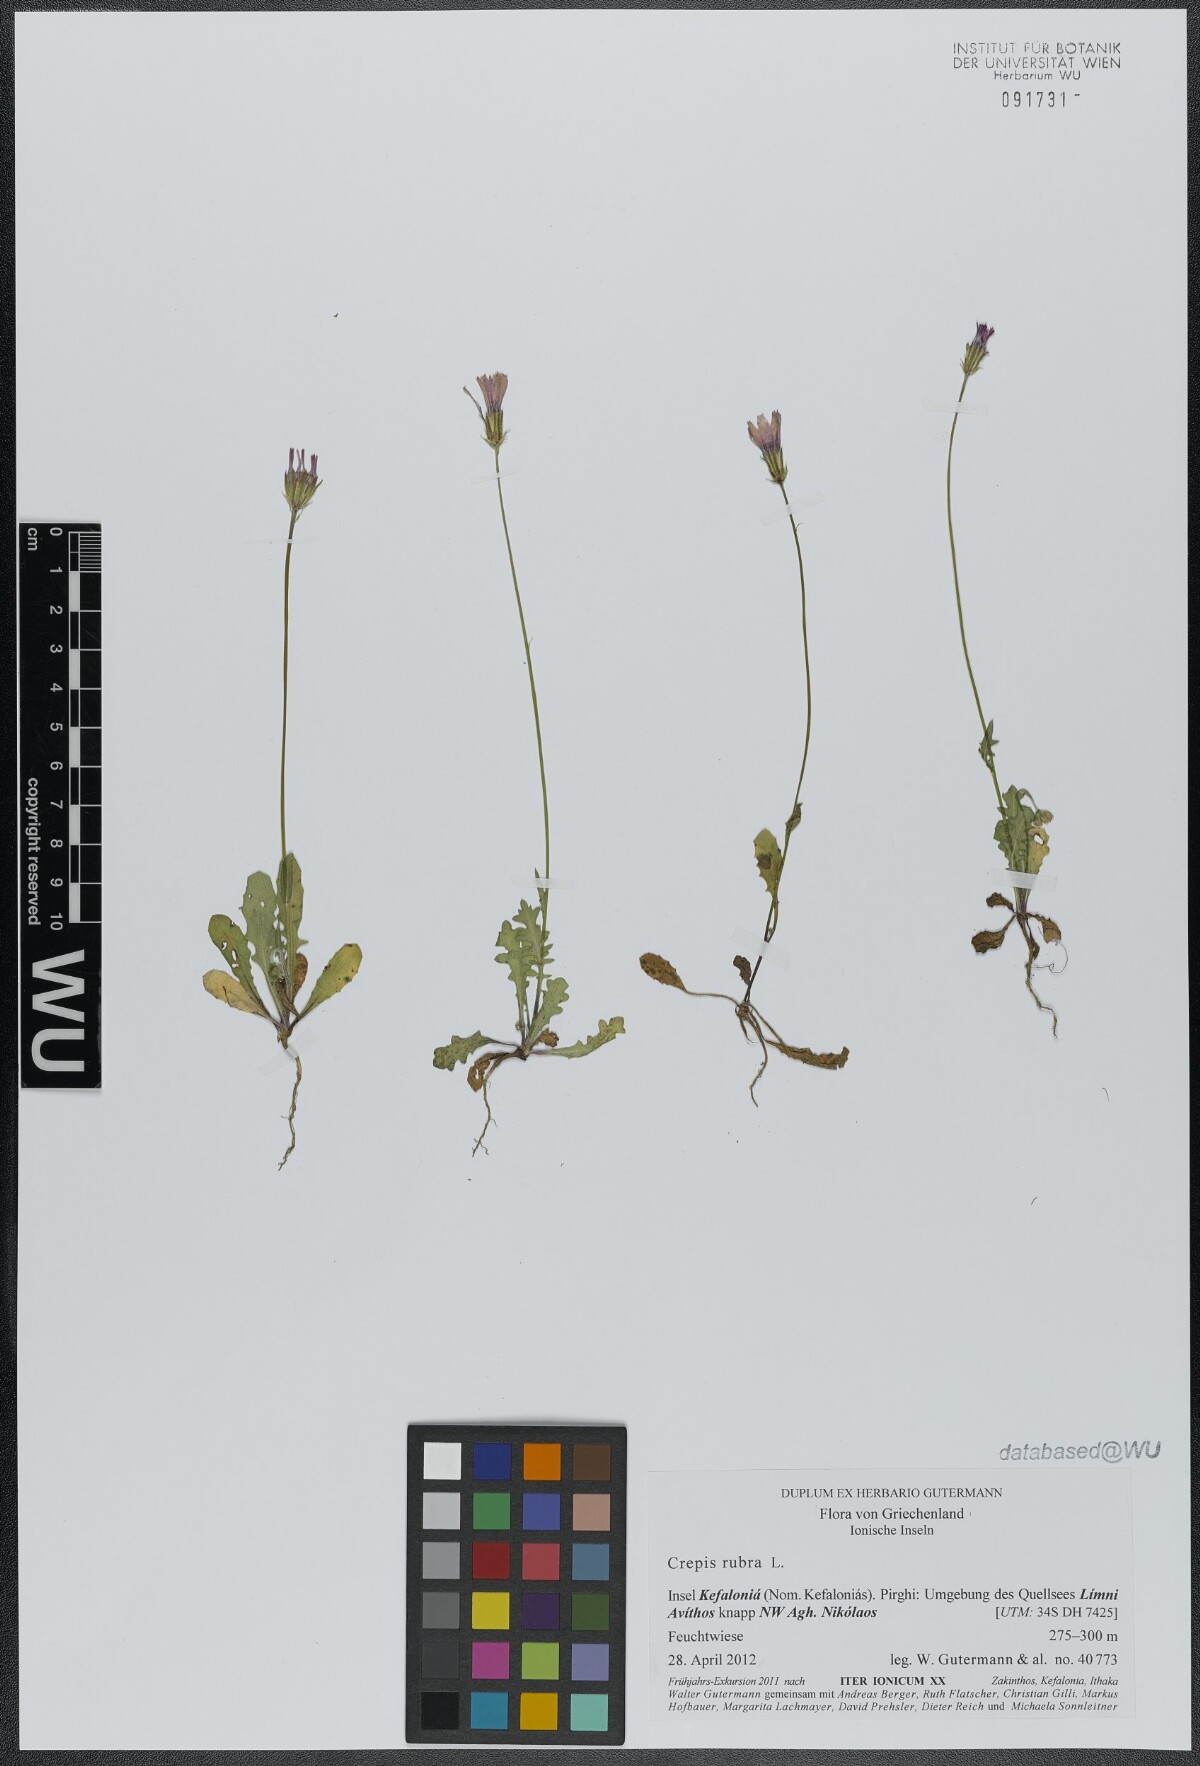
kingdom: Plantae
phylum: Tracheophyta
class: Magnoliopsida
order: Asterales
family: Asteraceae
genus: Crepis
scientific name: Crepis rubra
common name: Pink hawk's-beard
